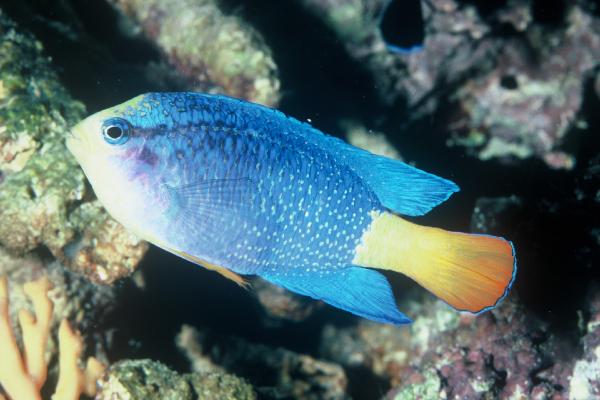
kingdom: Animalia
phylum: Chordata
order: Perciformes
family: Pomacentridae
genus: Chrysiptera
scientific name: Chrysiptera cyanea
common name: Blue devil
